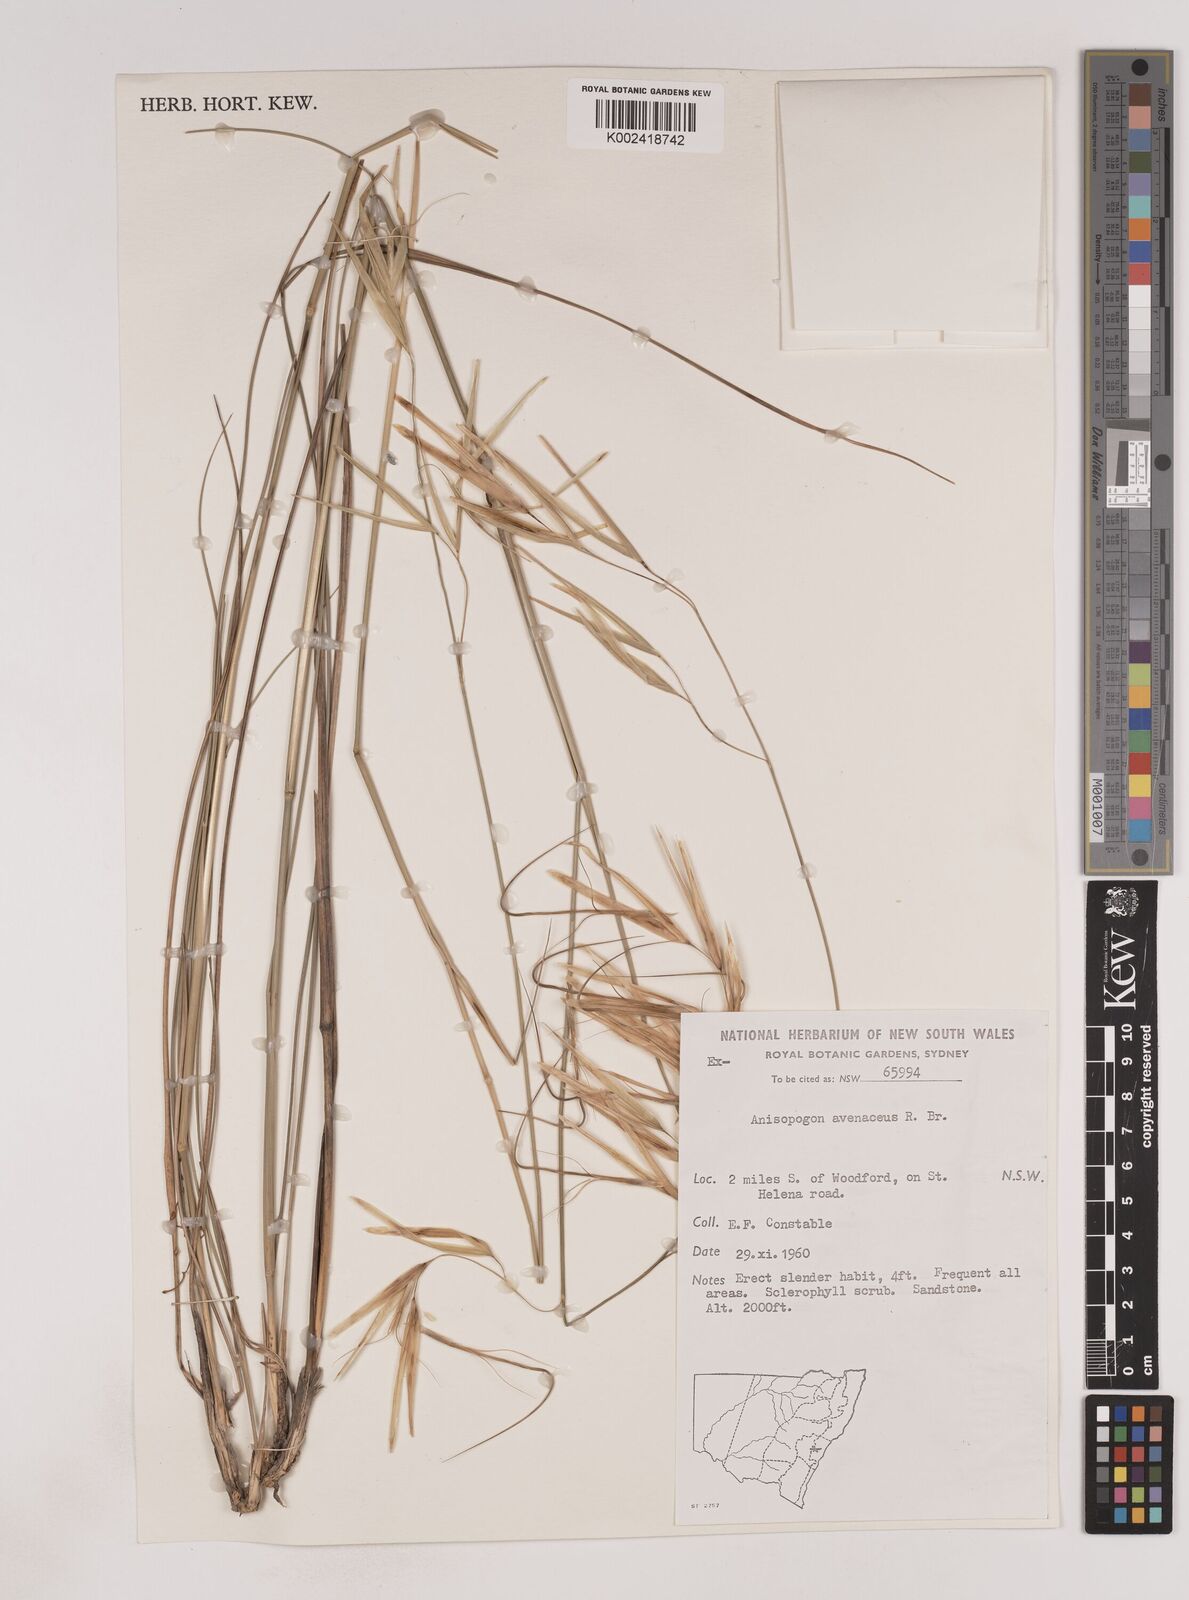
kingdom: Plantae
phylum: Tracheophyta
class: Liliopsida
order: Poales
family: Poaceae
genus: Anisopogon
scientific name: Anisopogon avenaceus
